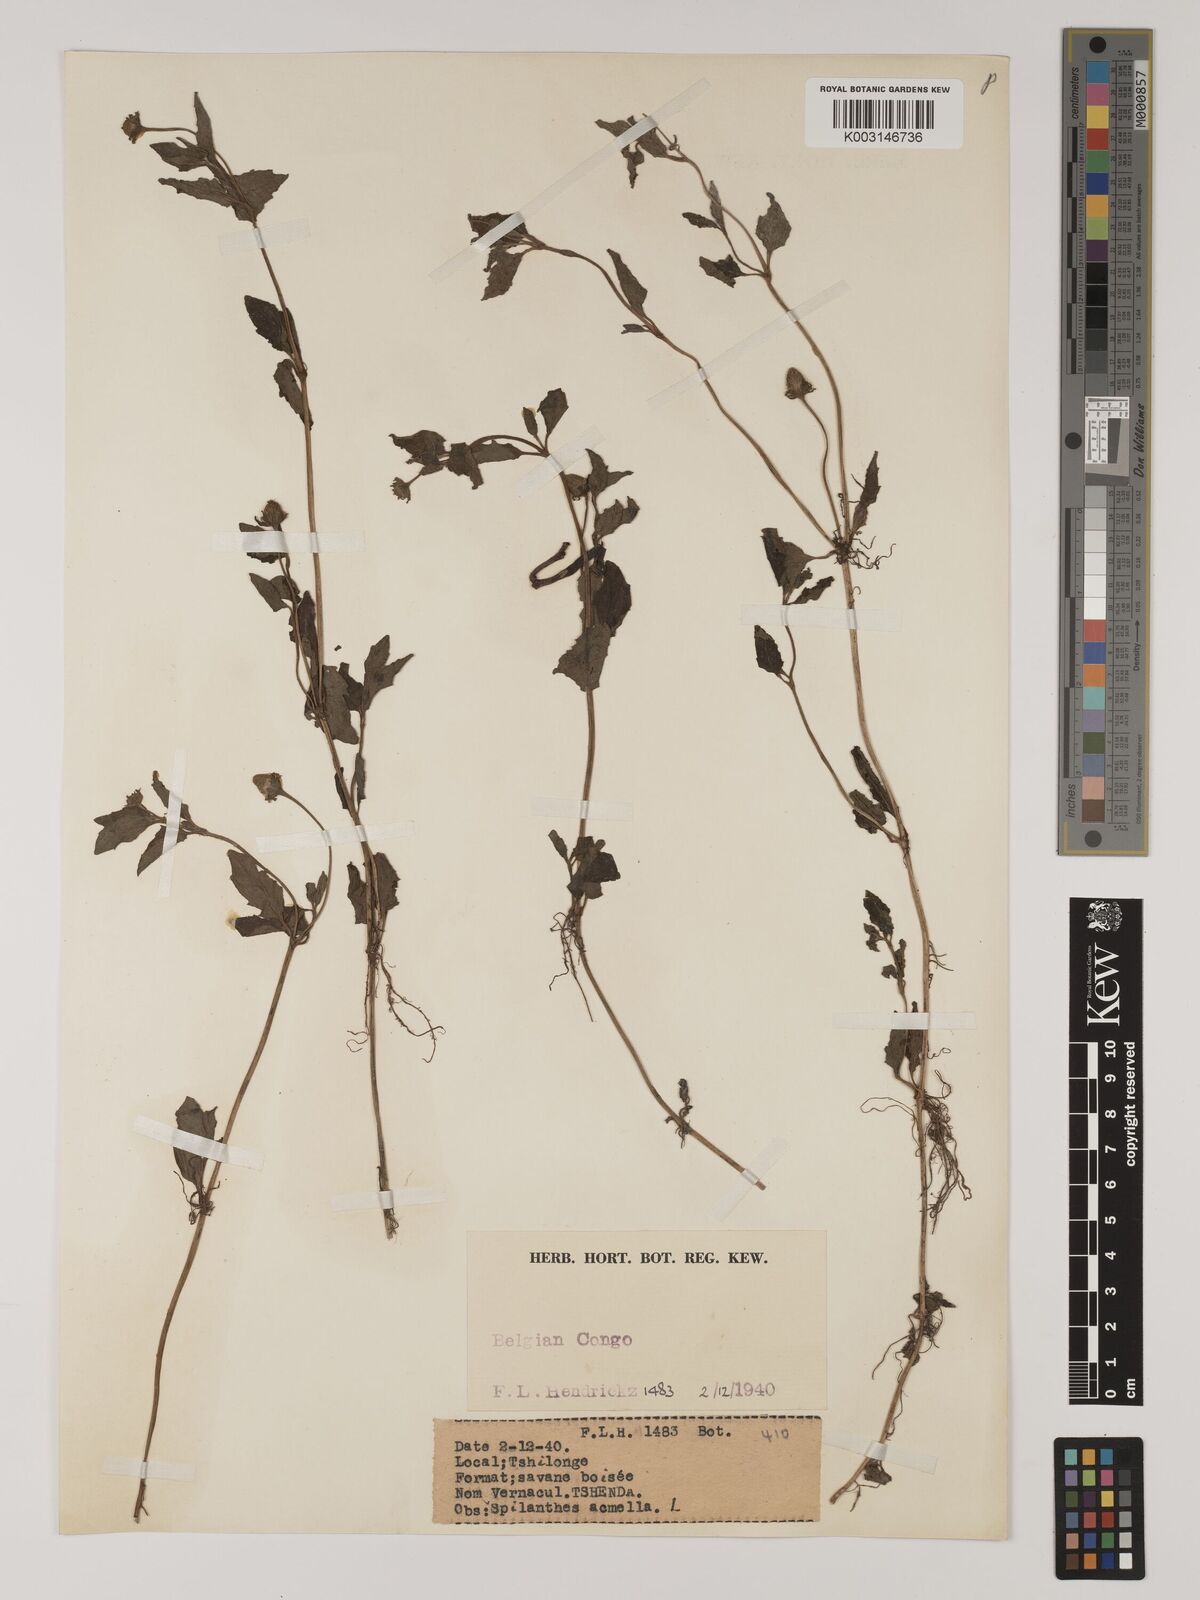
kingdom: Plantae
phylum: Tracheophyta
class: Magnoliopsida
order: Asterales
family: Asteraceae
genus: Blainvillea
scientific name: Blainvillea acmella
